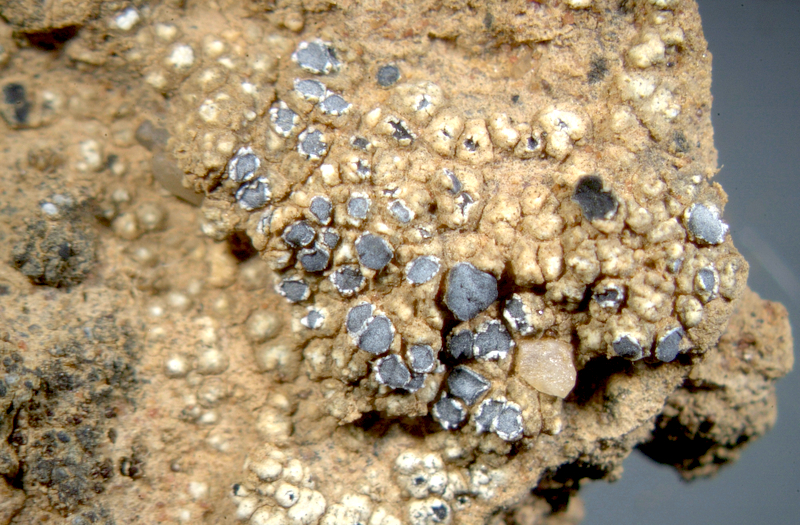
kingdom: Fungi
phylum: Ascomycota
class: Lecanoromycetes
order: Lecanorales
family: Ramalinaceae
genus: Bibbya
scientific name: Bibbya lutosa
